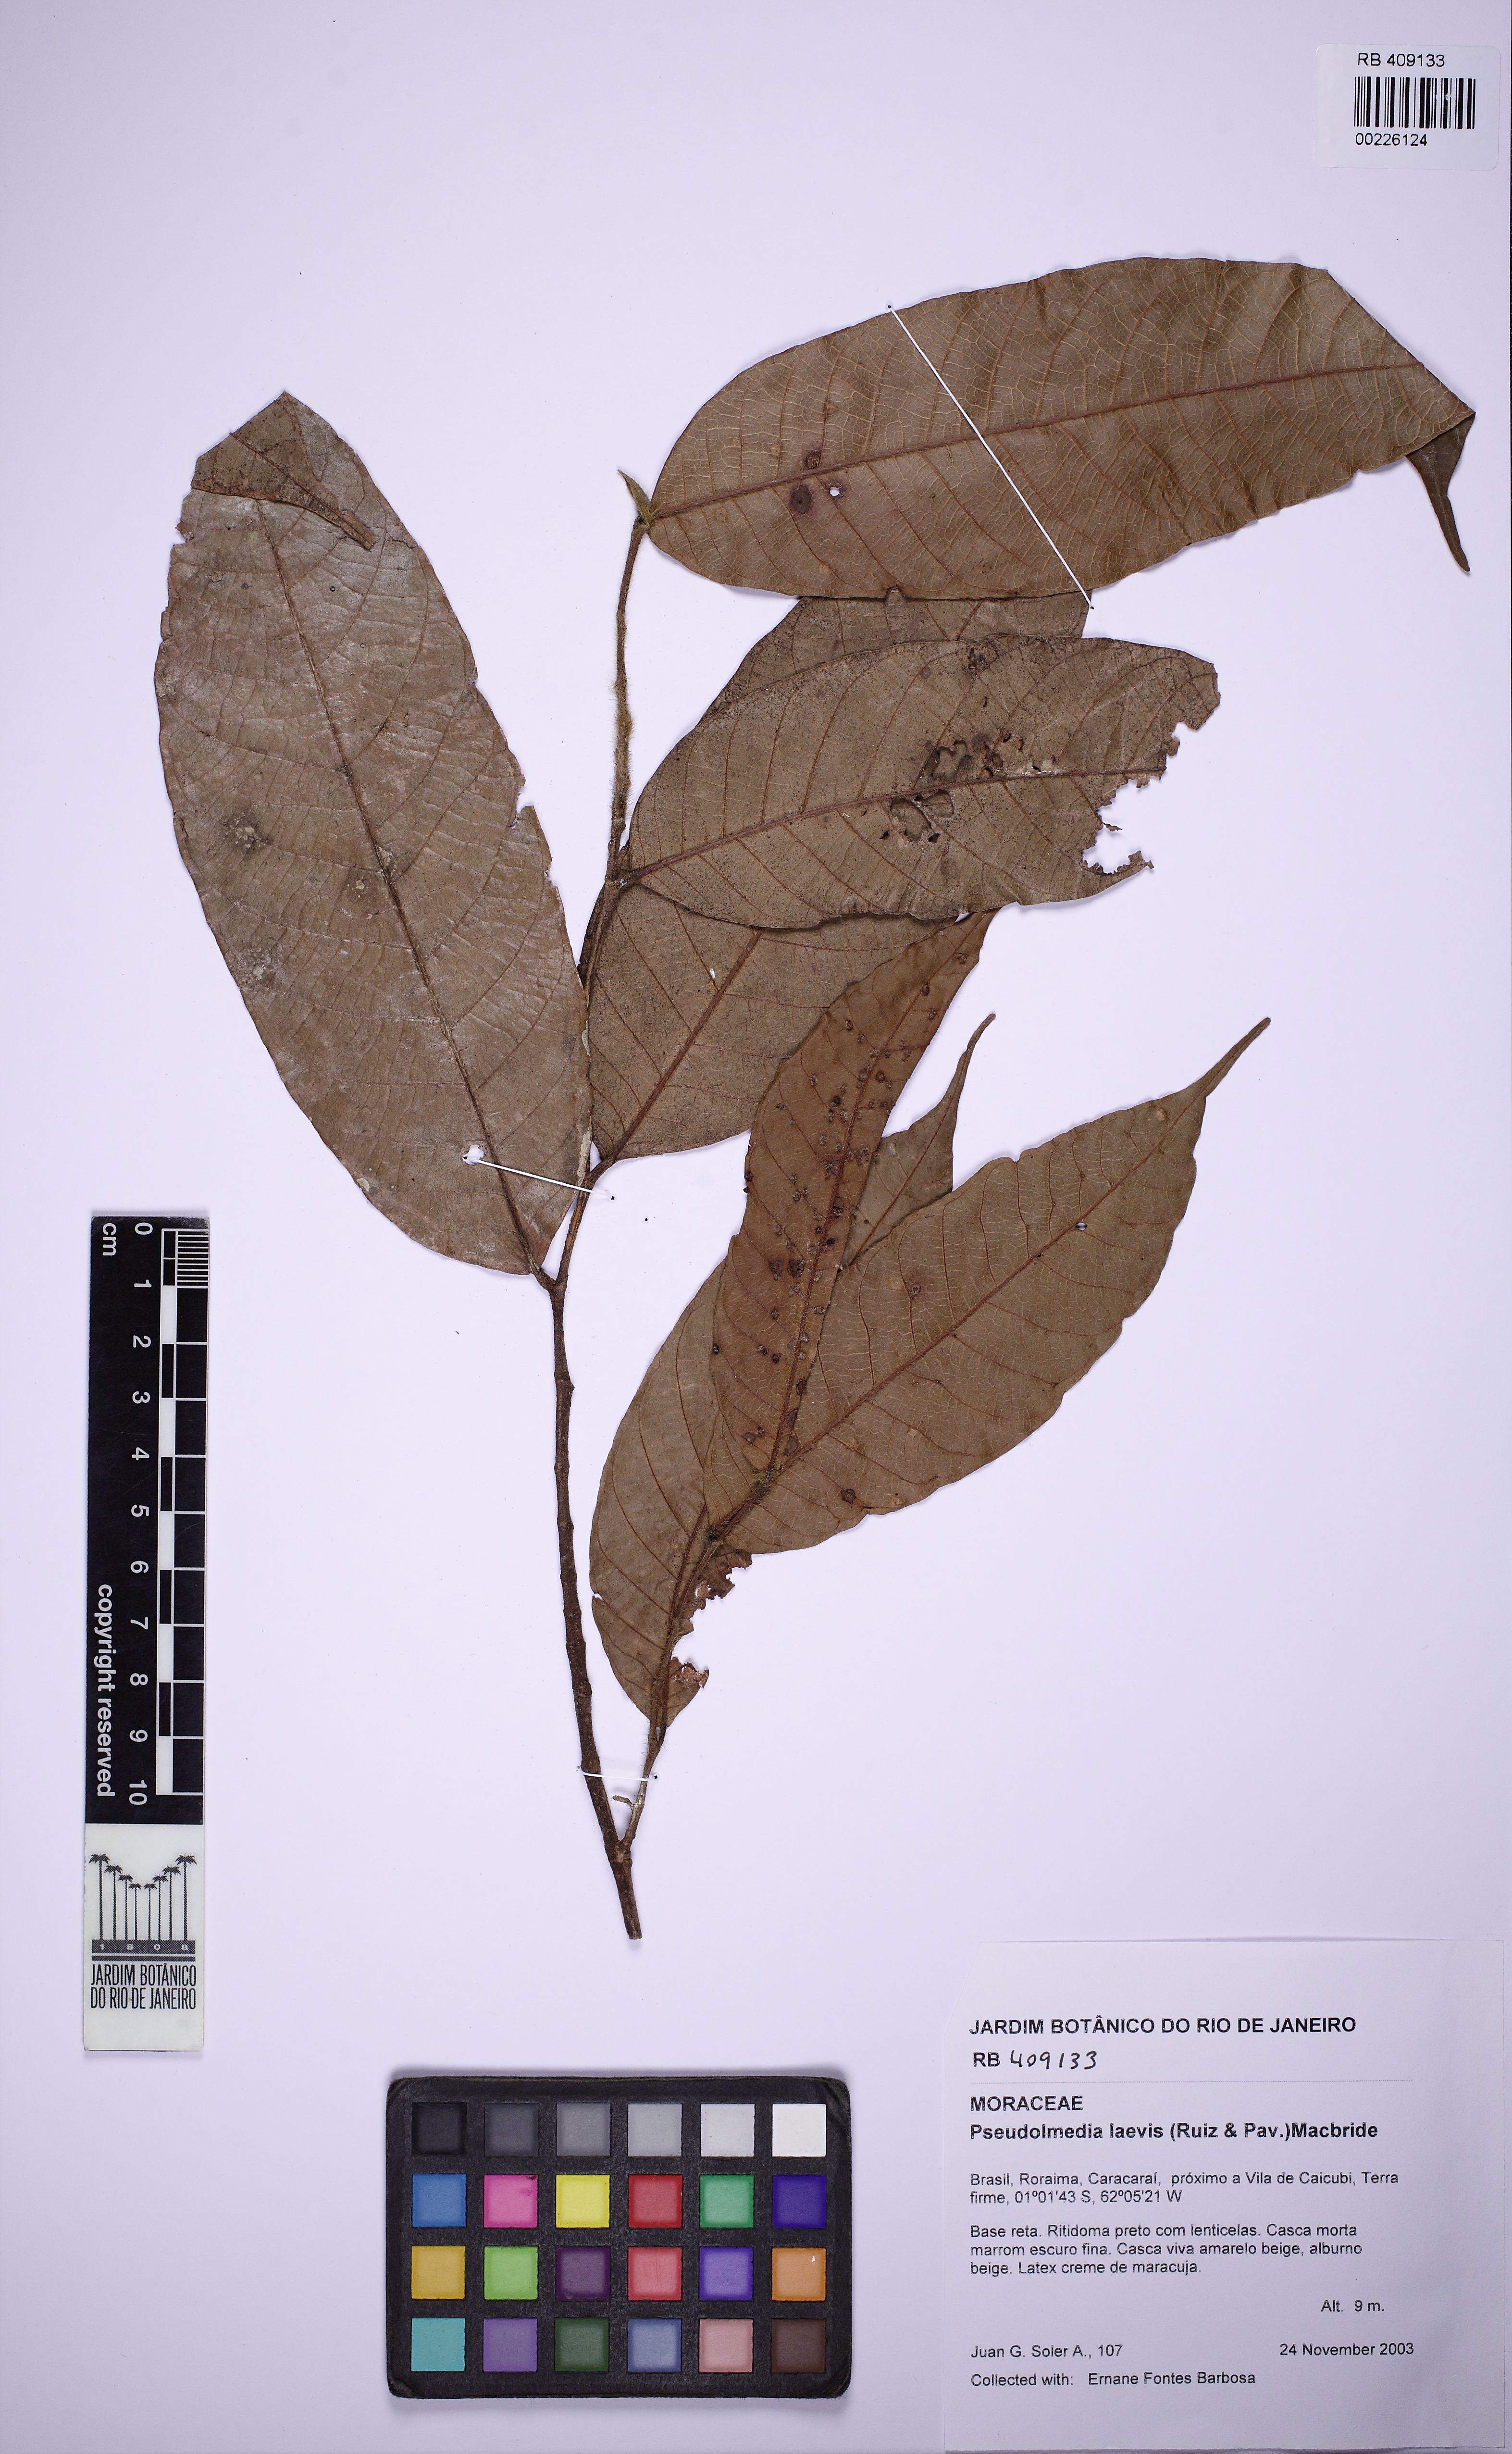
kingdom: Plantae
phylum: Tracheophyta
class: Magnoliopsida
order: Rosales
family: Moraceae
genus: Pseudolmedia
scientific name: Pseudolmedia laevis
